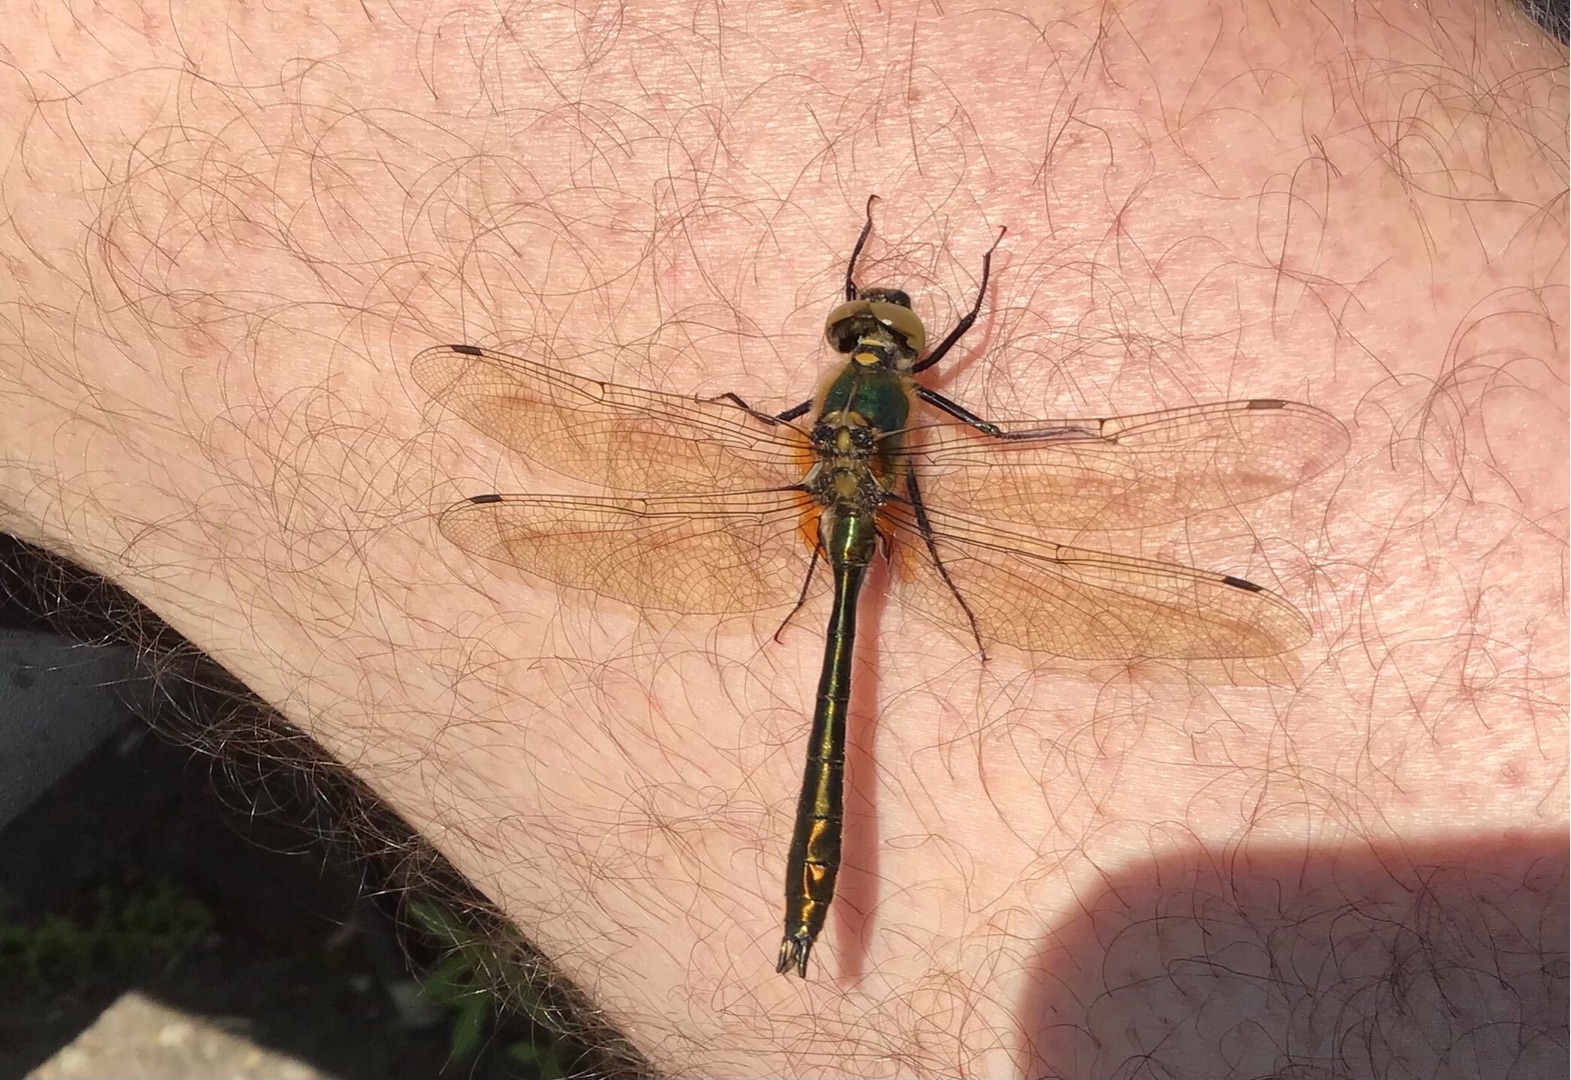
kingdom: Animalia
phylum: Arthropoda
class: Insecta
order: Odonata
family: Corduliidae
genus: Cordulia
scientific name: Cordulia aenea
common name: Grøn smaragdlibel
